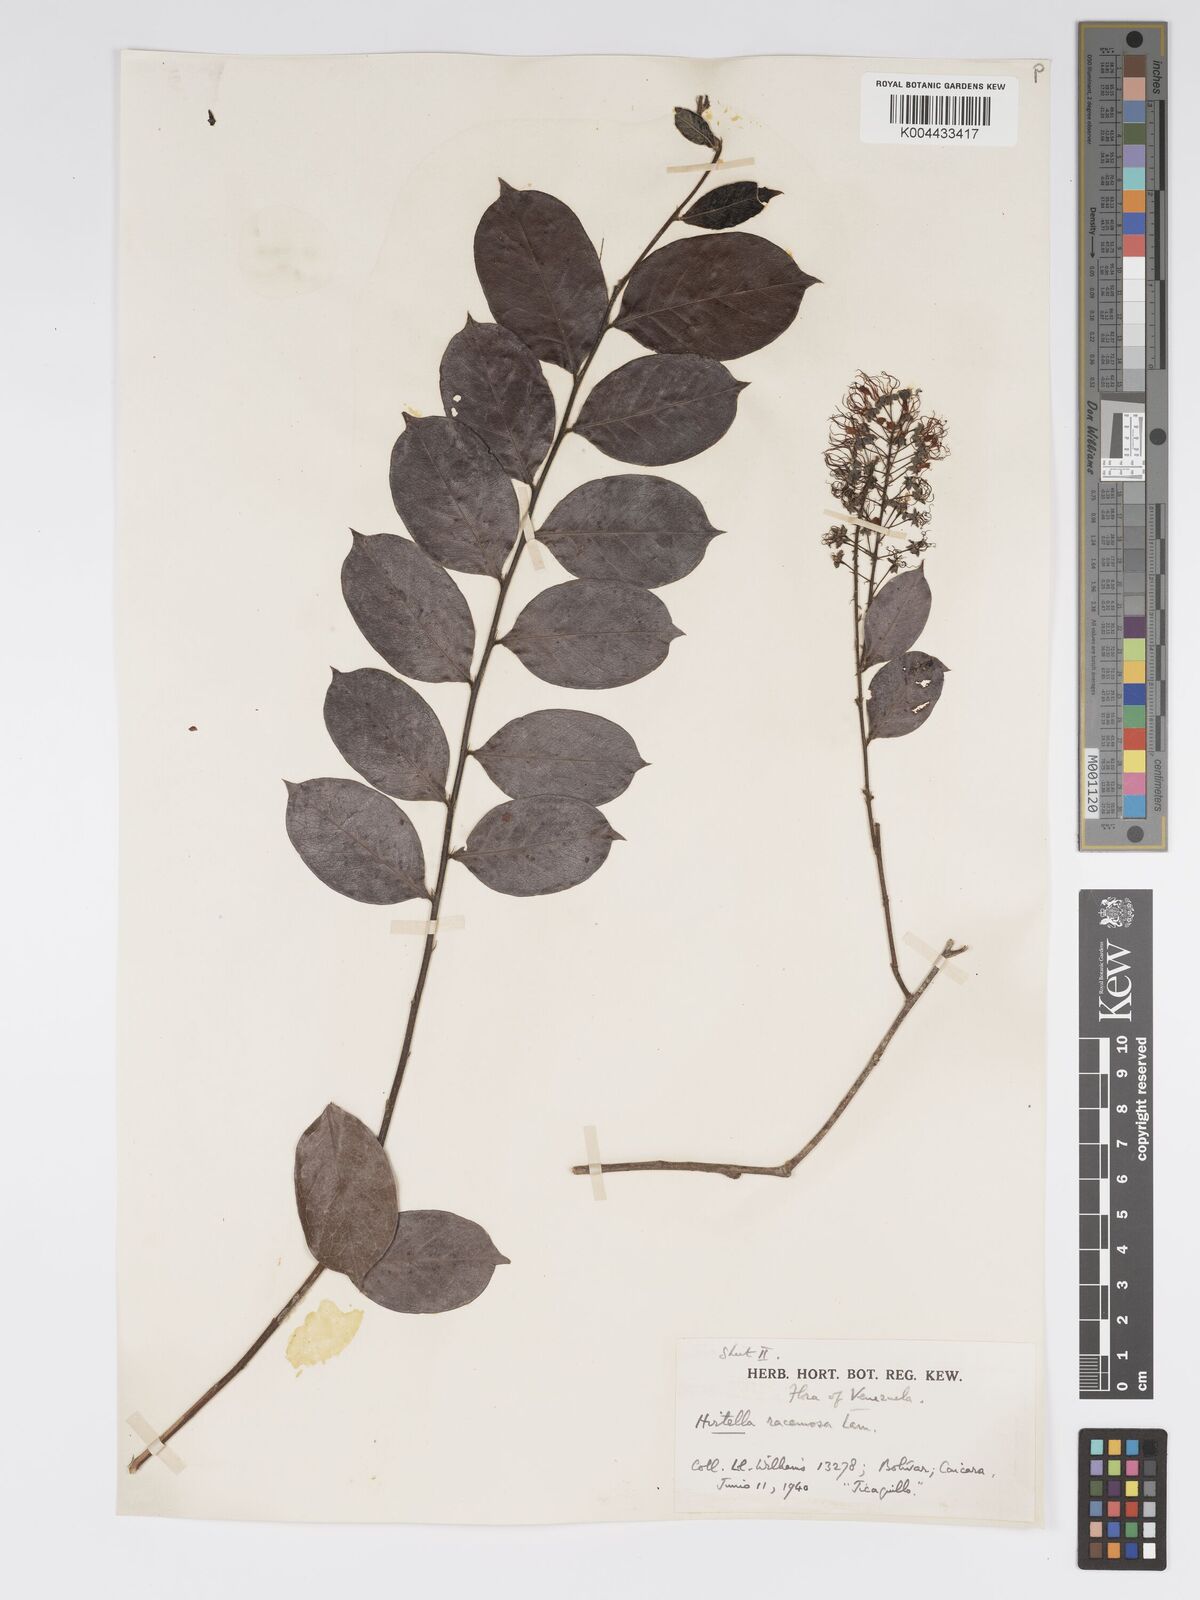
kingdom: Plantae
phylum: Tracheophyta
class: Magnoliopsida
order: Malpighiales
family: Chrysobalanaceae
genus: Hirtella
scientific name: Hirtella racemosa
